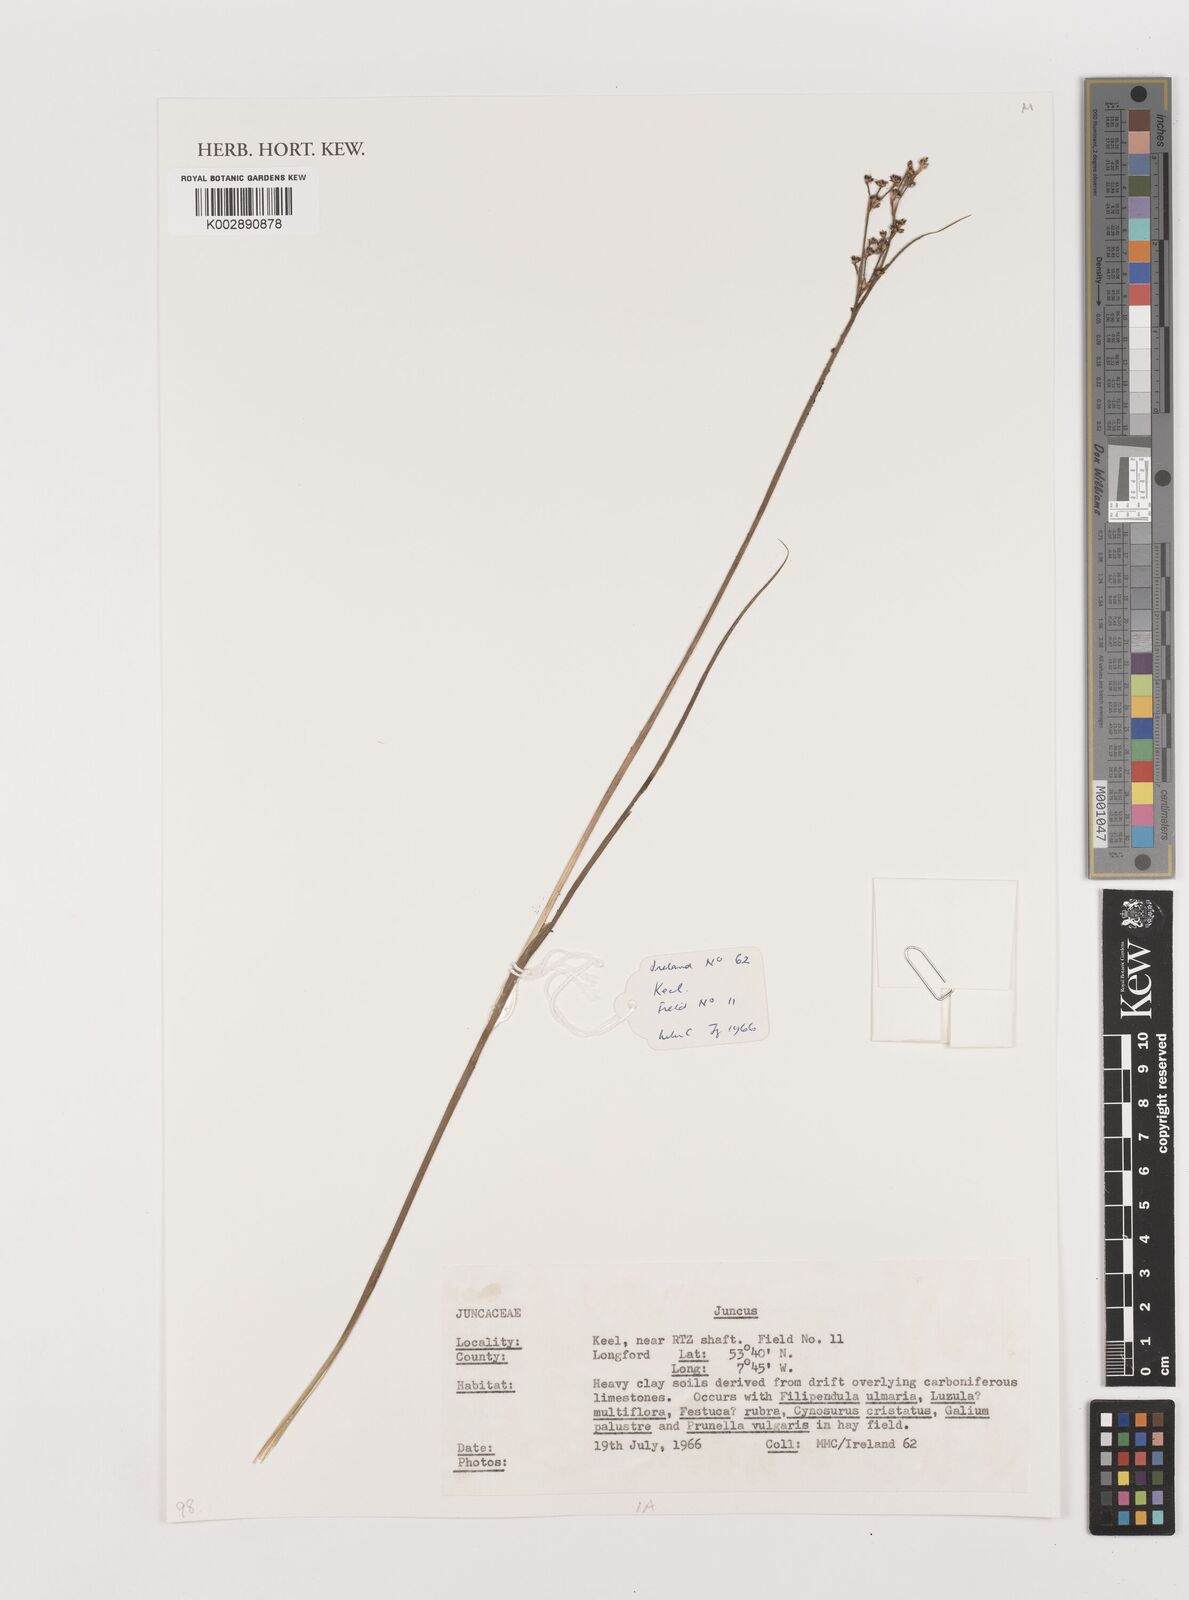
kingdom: Plantae
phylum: Tracheophyta
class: Liliopsida
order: Poales
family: Juncaceae
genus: Juncus
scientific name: Juncus
